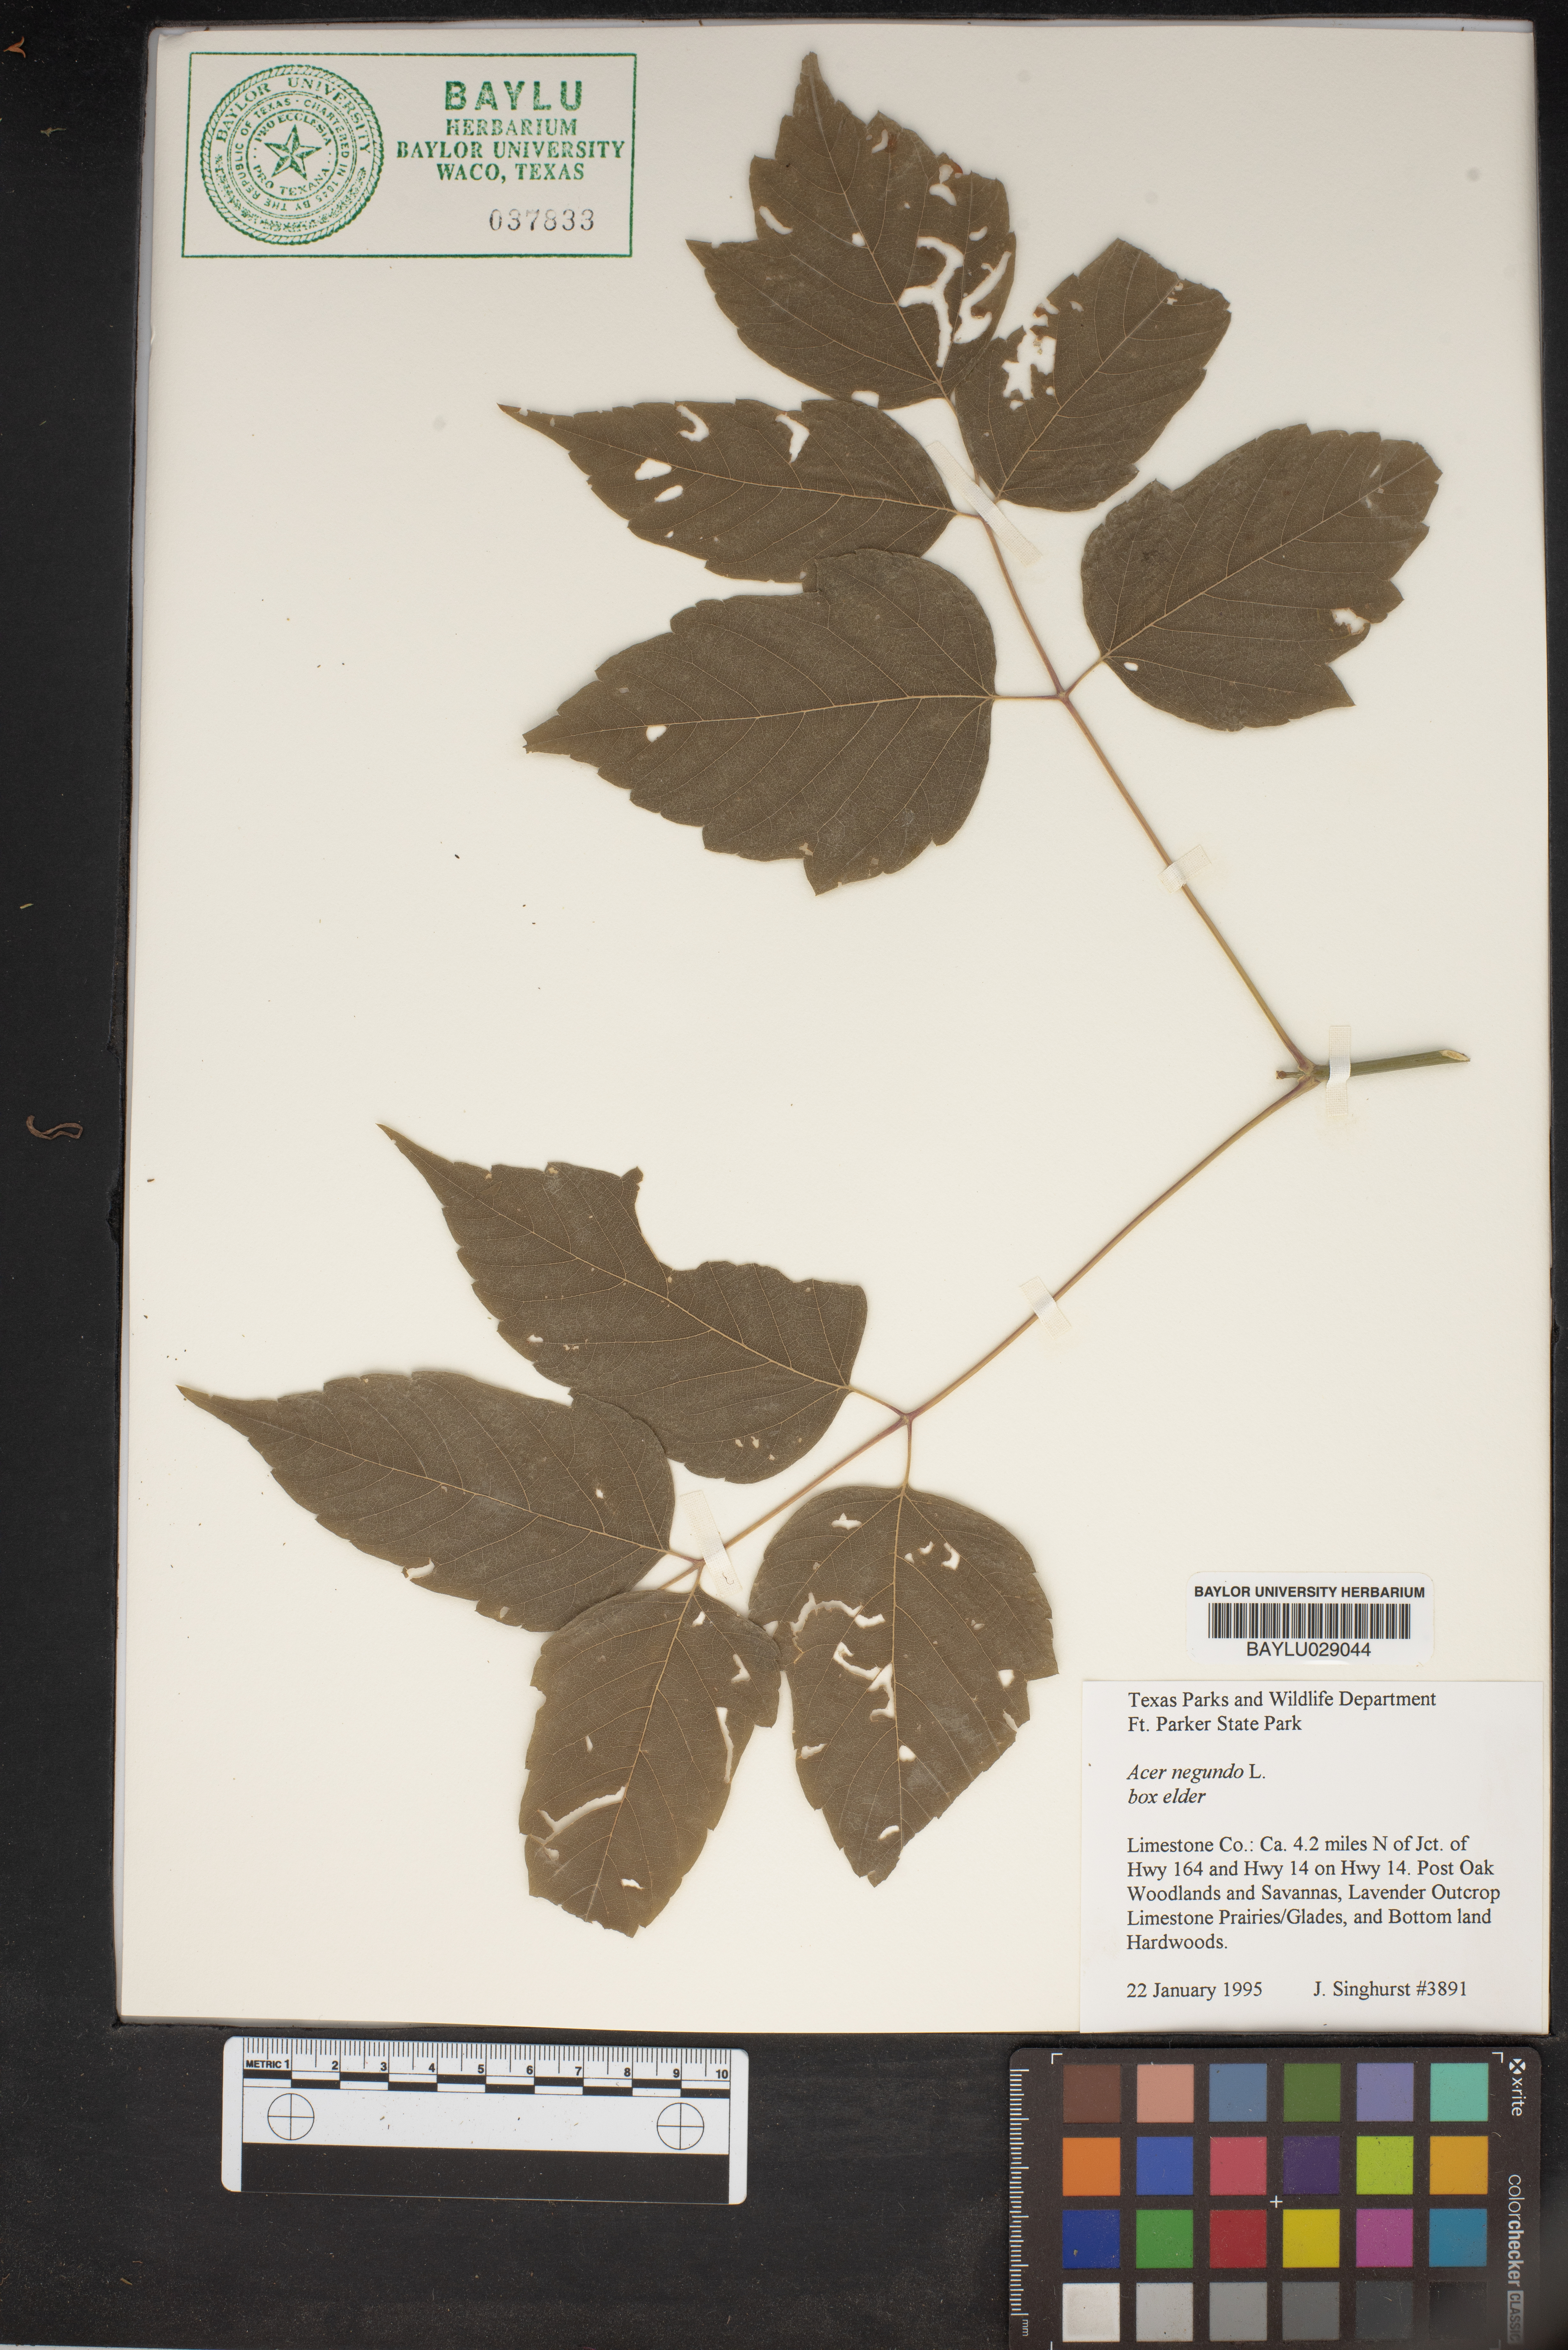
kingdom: Plantae
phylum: Tracheophyta
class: Magnoliopsida
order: Sapindales
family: Sapindaceae
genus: Acer
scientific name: Acer negundo
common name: Ashleaf maple
